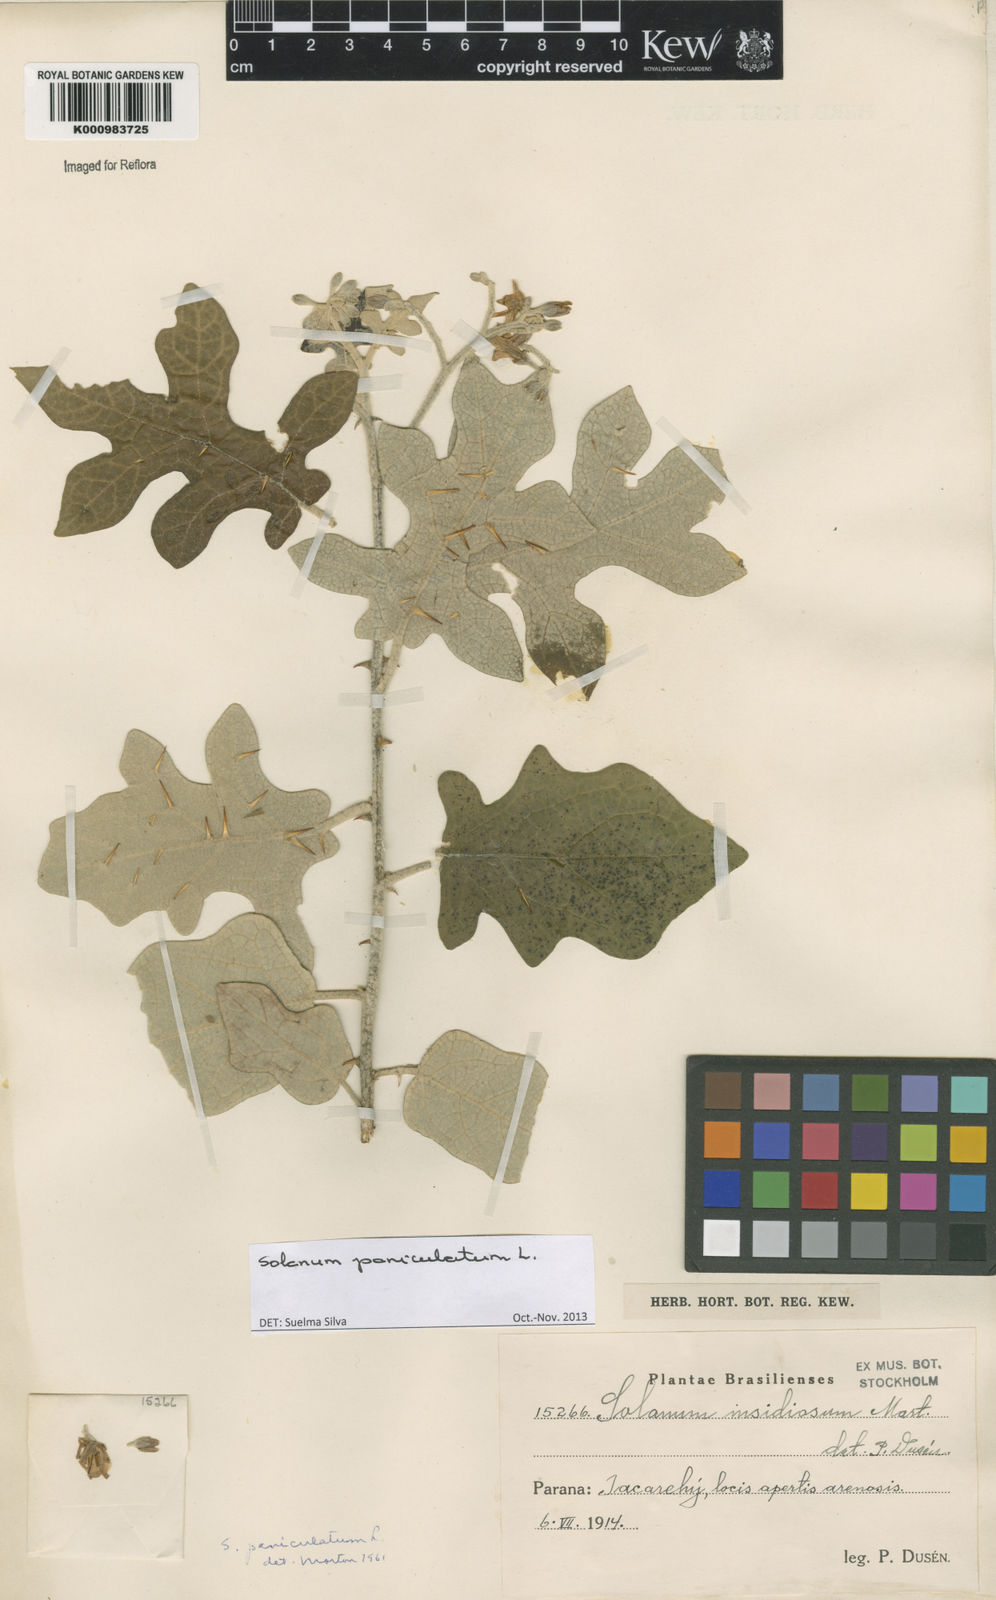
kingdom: Plantae
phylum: Tracheophyta
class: Magnoliopsida
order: Solanales
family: Solanaceae
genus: Solanum
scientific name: Solanum paniculatum
